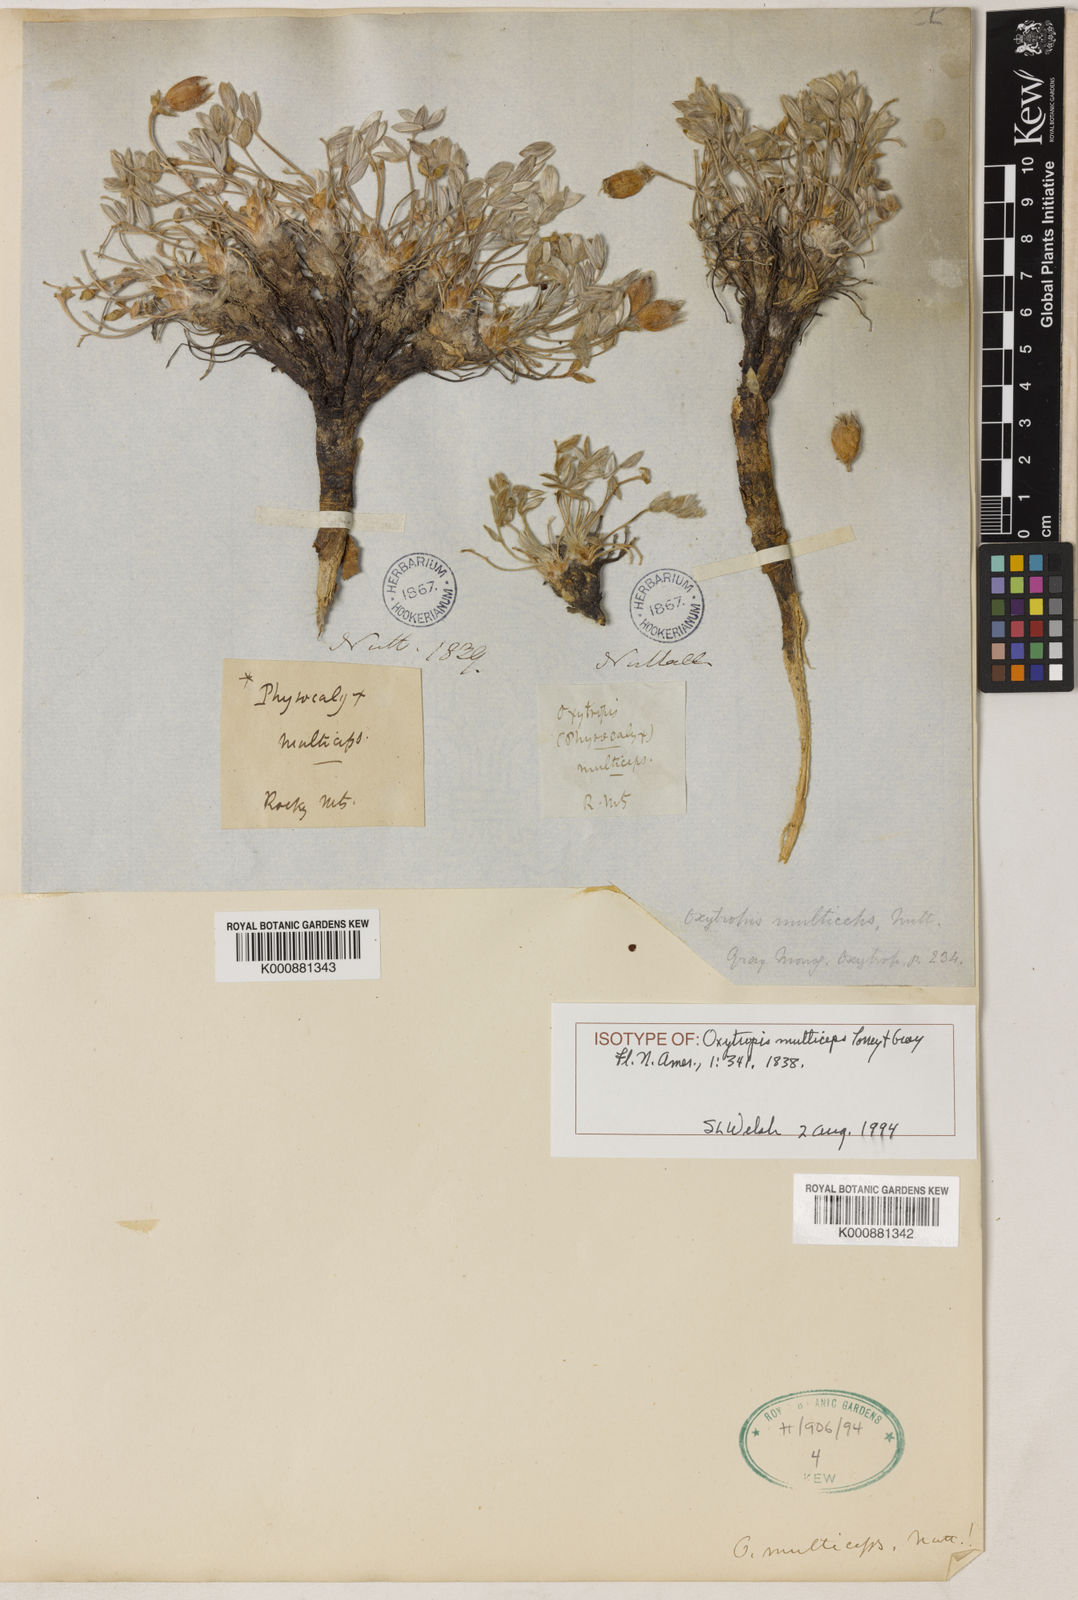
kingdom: Plantae
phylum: Tracheophyta
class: Magnoliopsida
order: Fabales
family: Fabaceae
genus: Oxytropis
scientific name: Oxytropis
